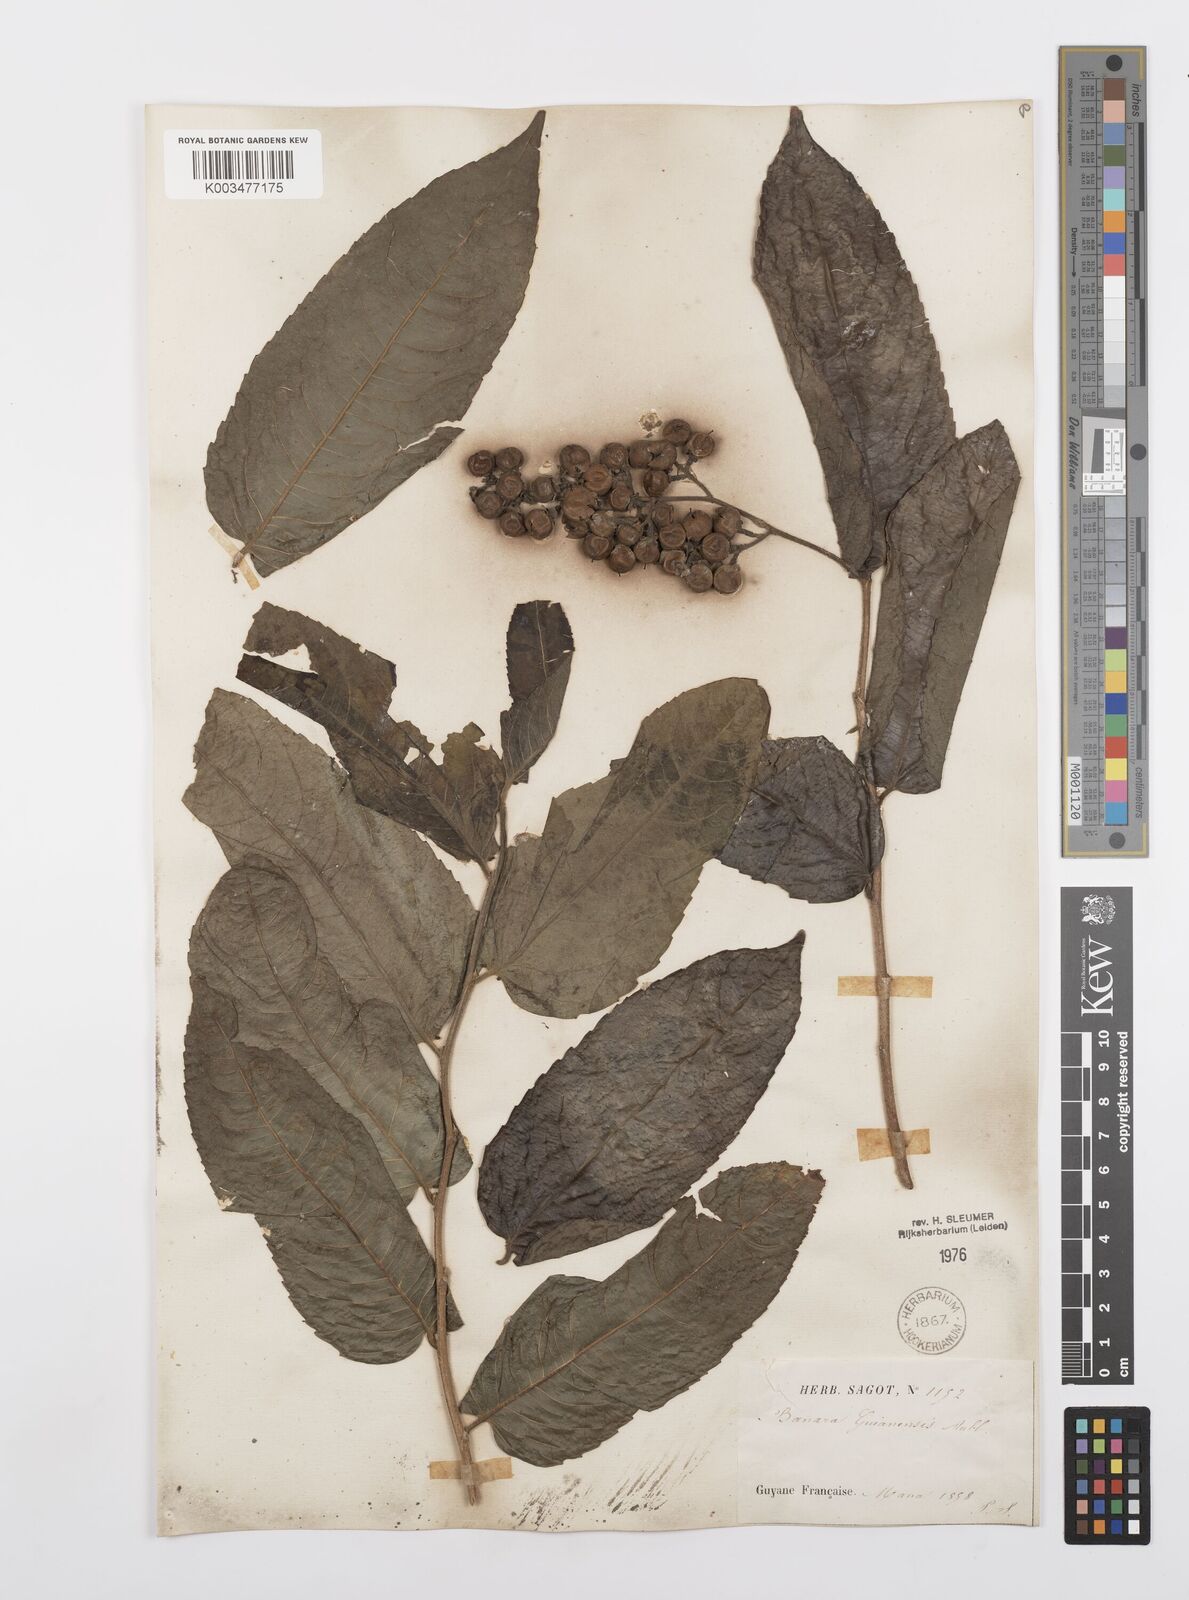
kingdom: Plantae
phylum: Tracheophyta
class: Magnoliopsida
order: Malpighiales
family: Salicaceae
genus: Banara
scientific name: Banara guianensis
